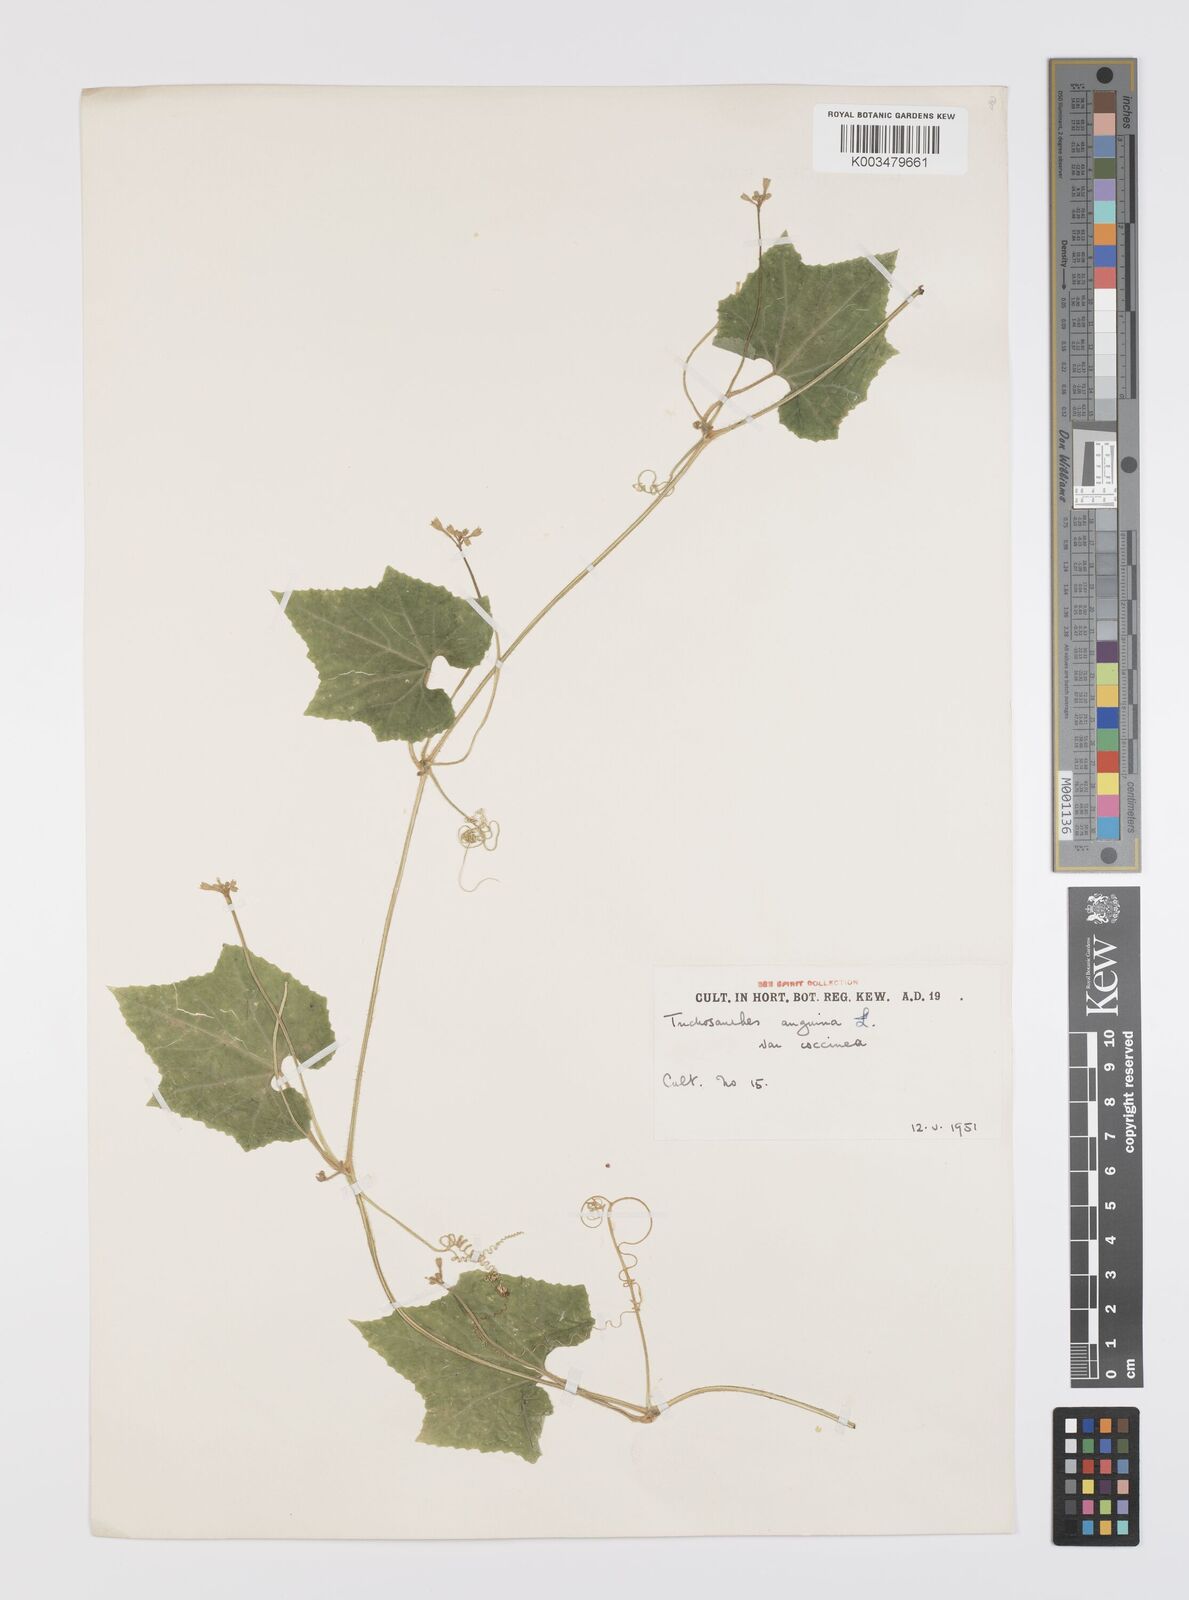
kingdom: Plantae
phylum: Tracheophyta
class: Magnoliopsida
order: Cucurbitales
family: Cucurbitaceae
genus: Trichosanthes
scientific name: Trichosanthes cucumerina
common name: Snakegourd
